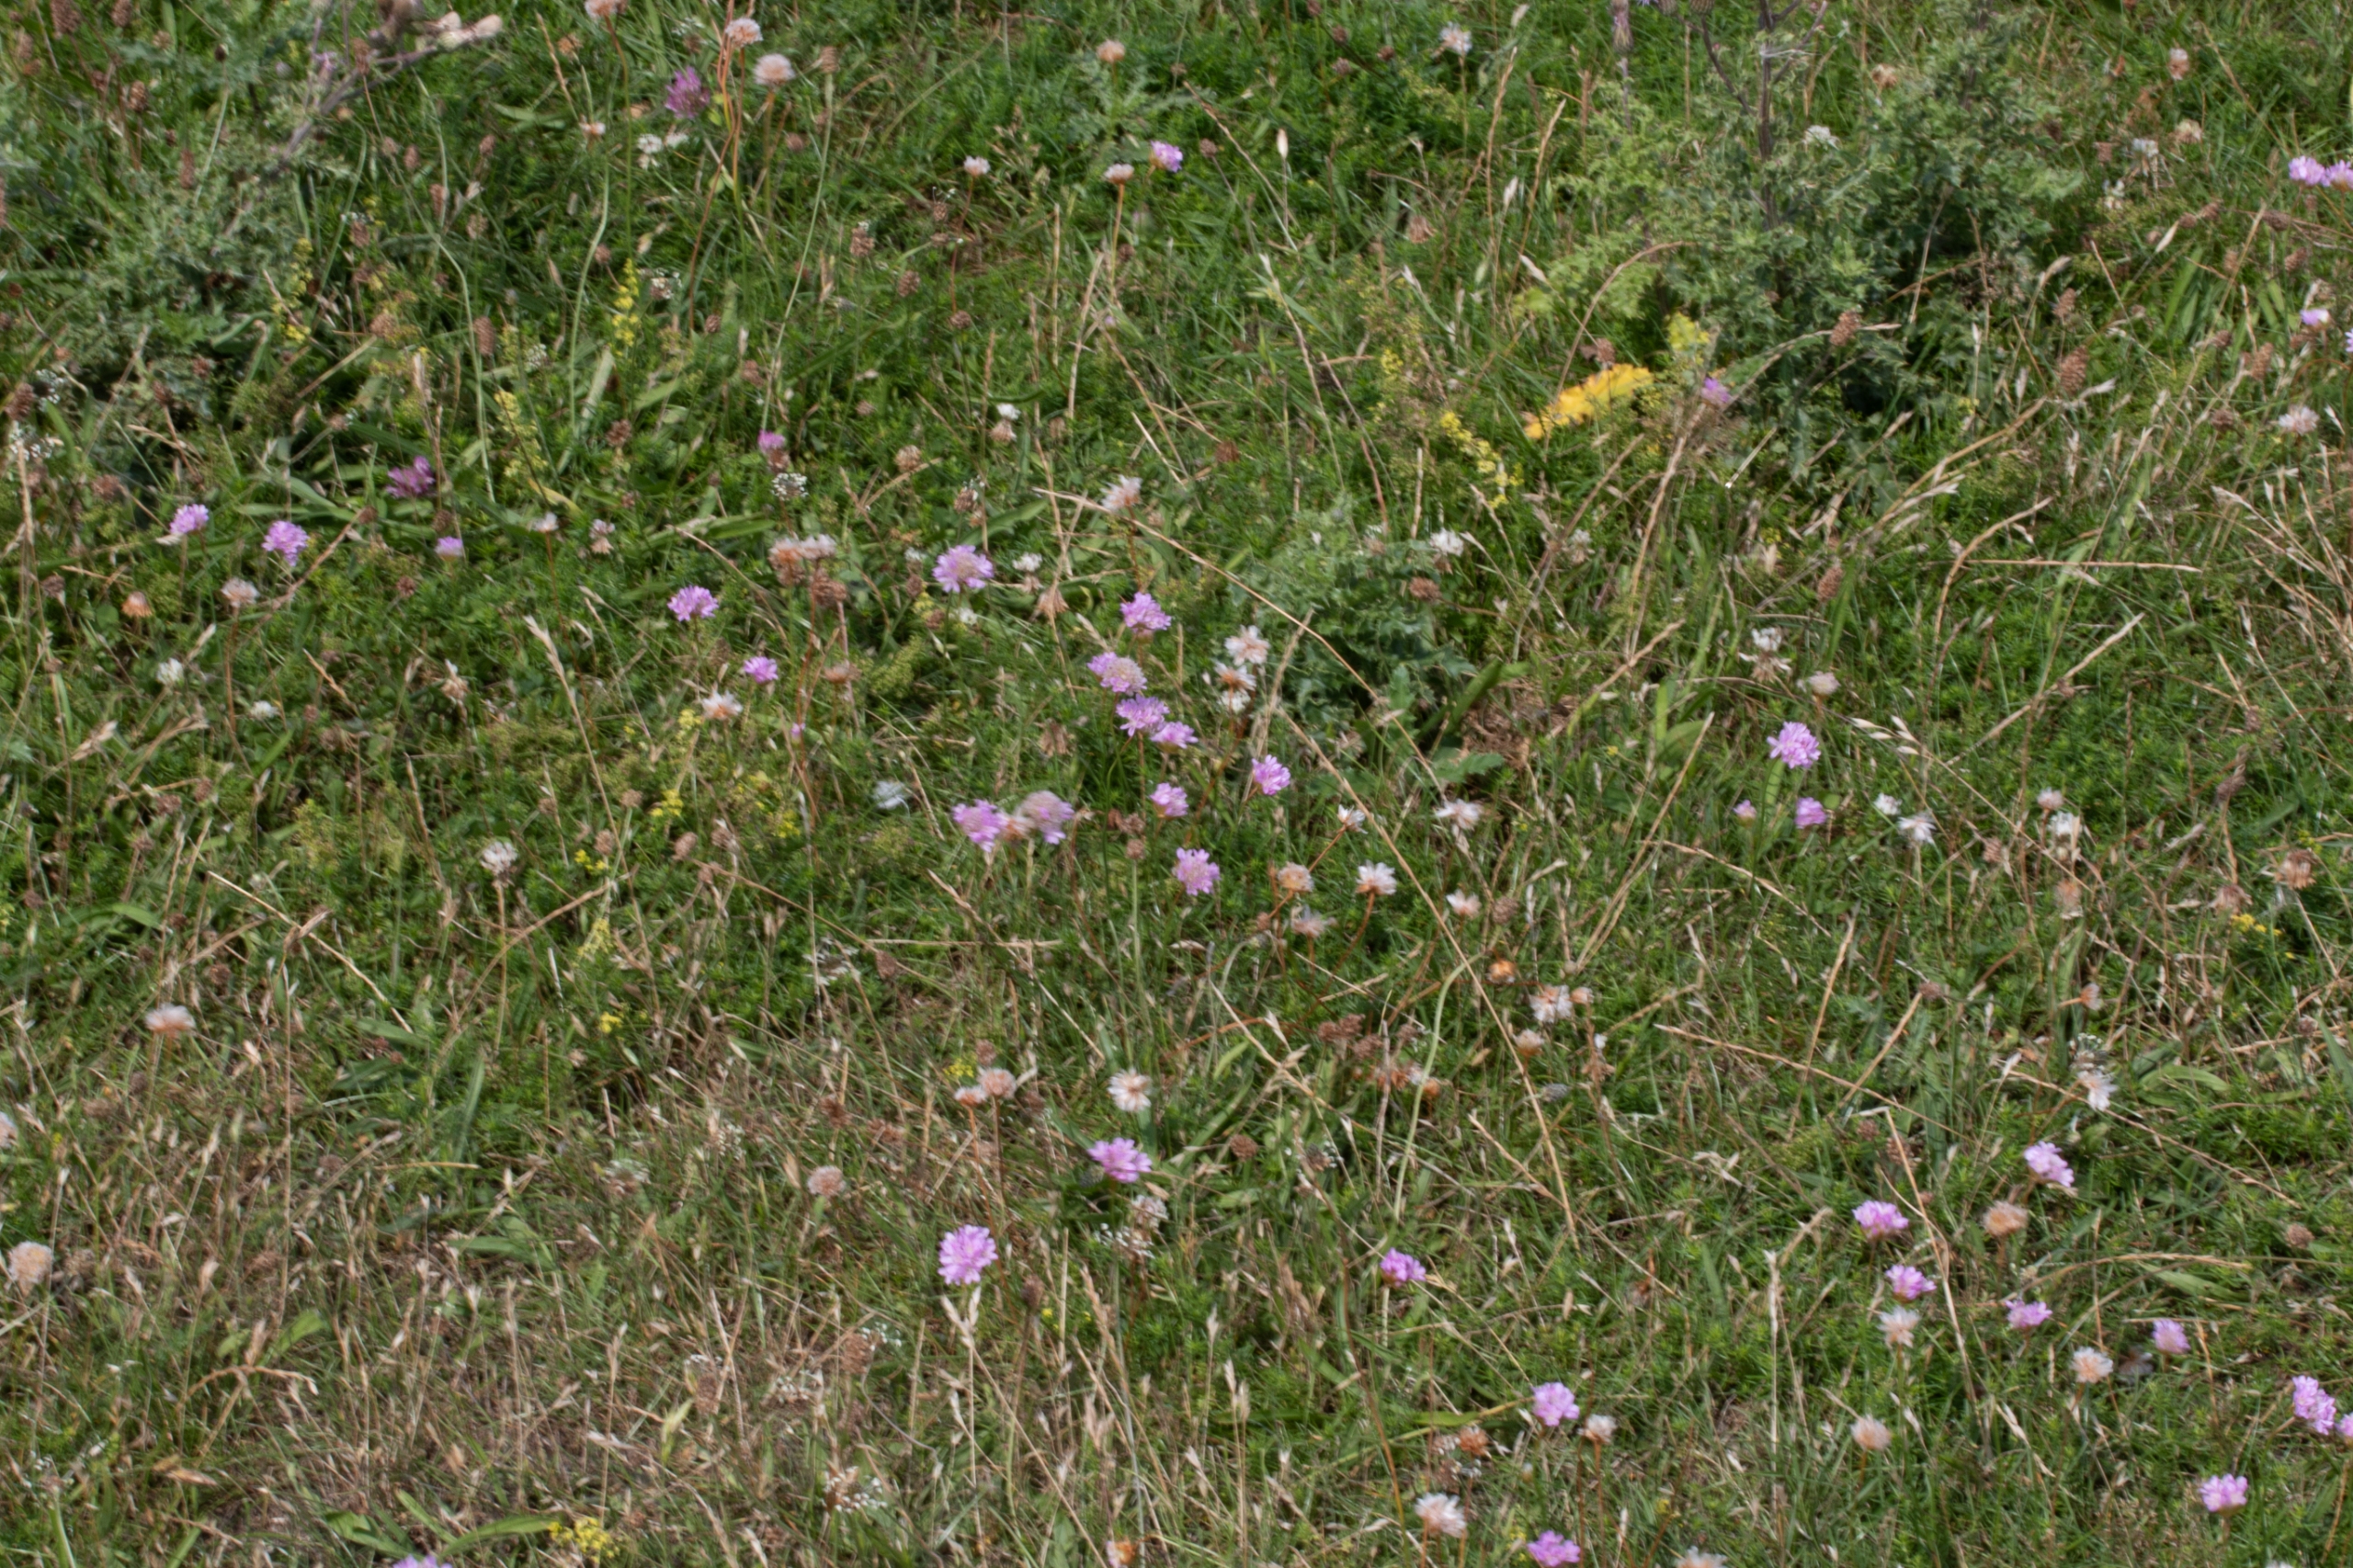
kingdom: Plantae
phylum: Tracheophyta
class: Magnoliopsida
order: Caryophyllales
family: Plumbaginaceae
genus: Armeria
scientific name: Armeria maritima
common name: Engelskgræs
